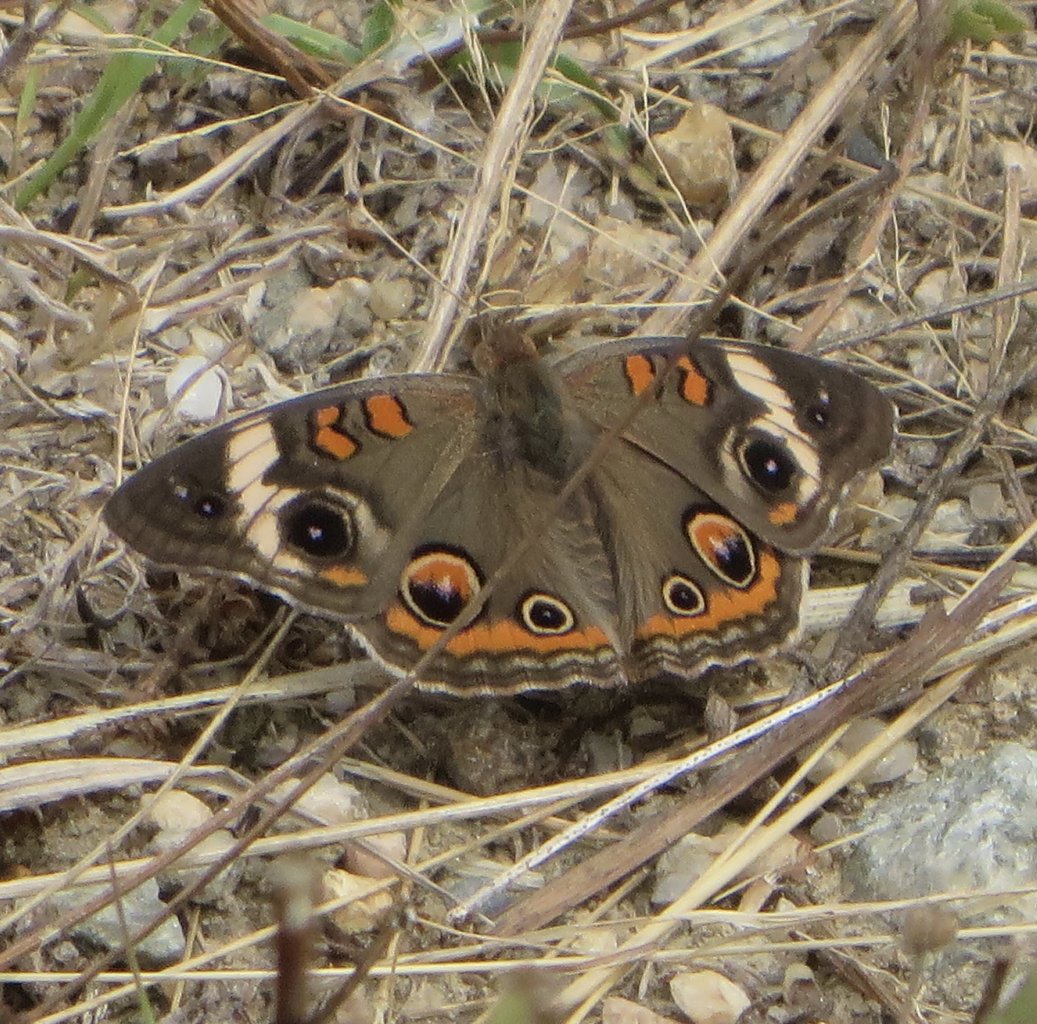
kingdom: Animalia
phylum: Arthropoda
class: Insecta
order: Lepidoptera
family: Nymphalidae
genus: Junonia
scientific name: Junonia coenia
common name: Common Buckeye
